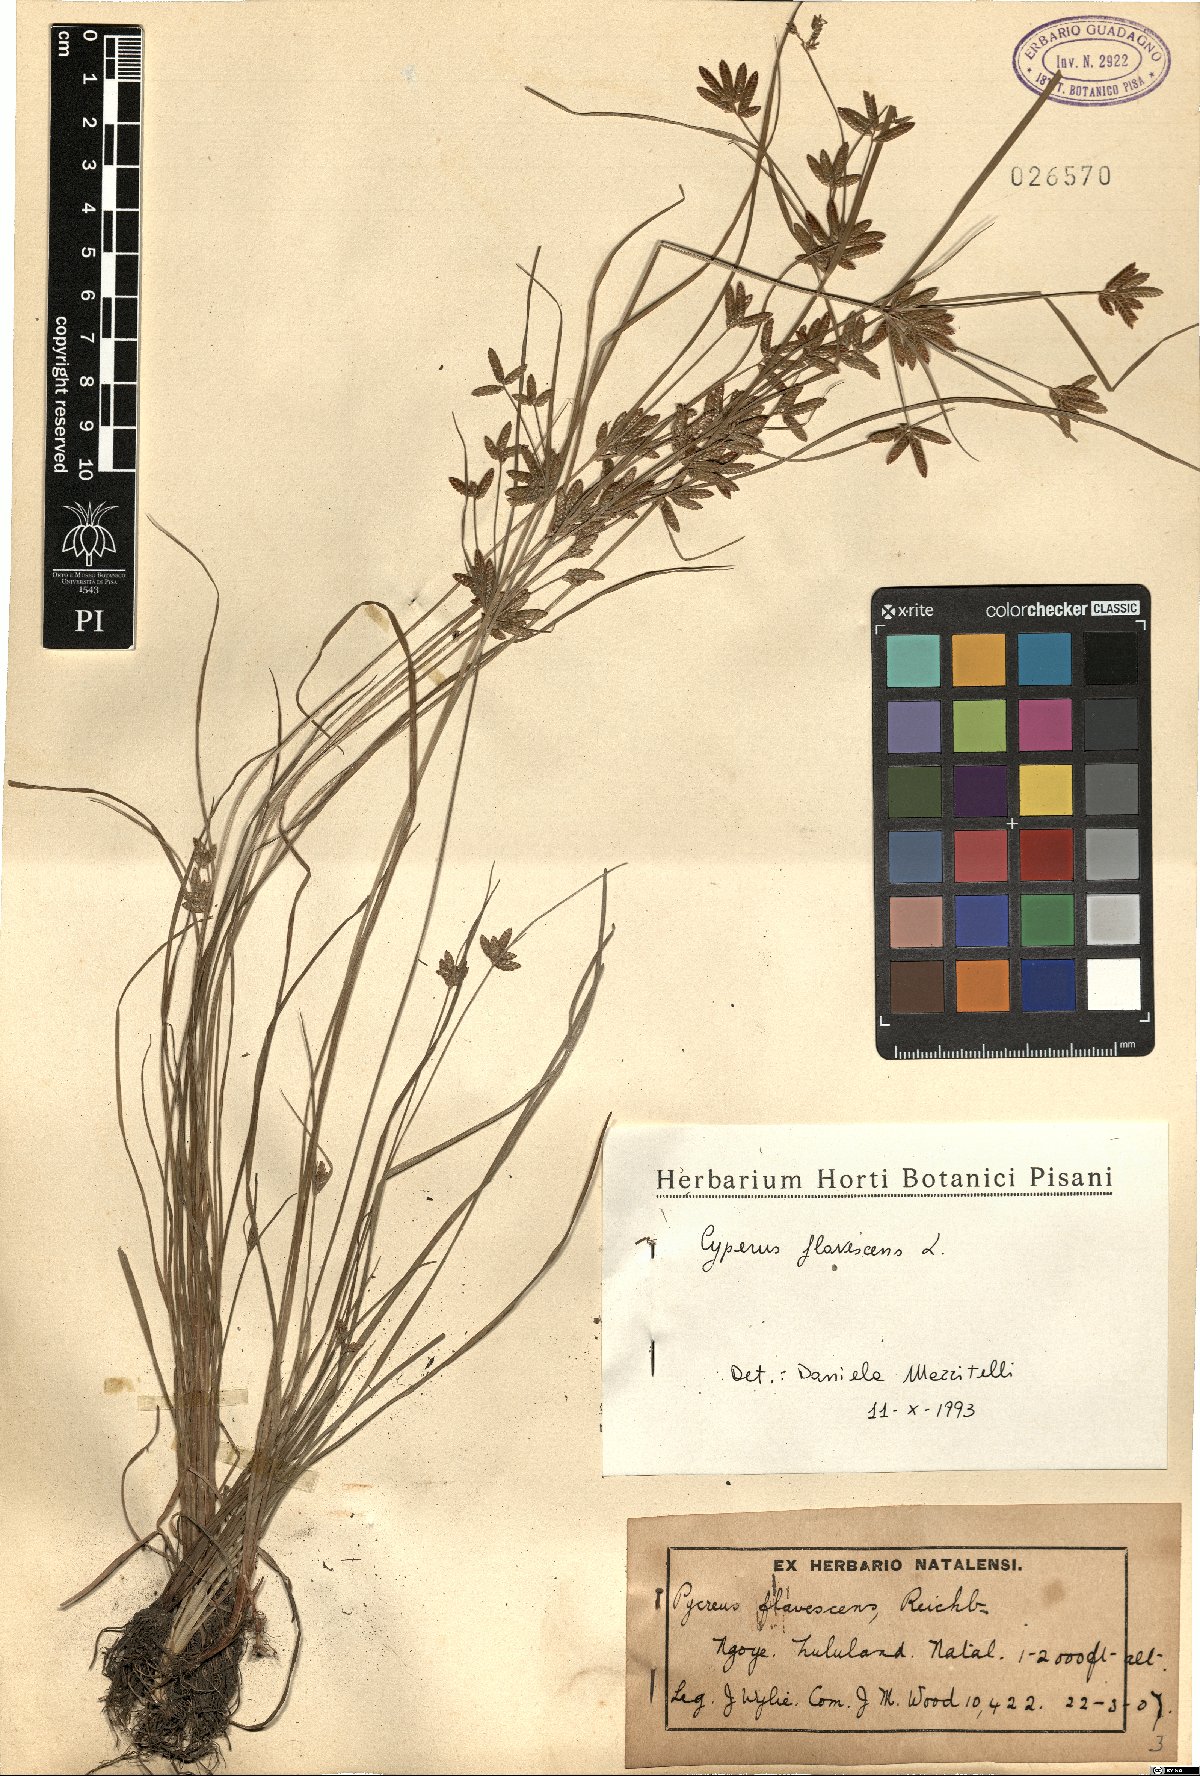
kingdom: Plantae
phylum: Tracheophyta
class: Liliopsida
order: Poales
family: Cyperaceae
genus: Cyperus
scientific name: Cyperus flavescens
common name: Yellow galingale
